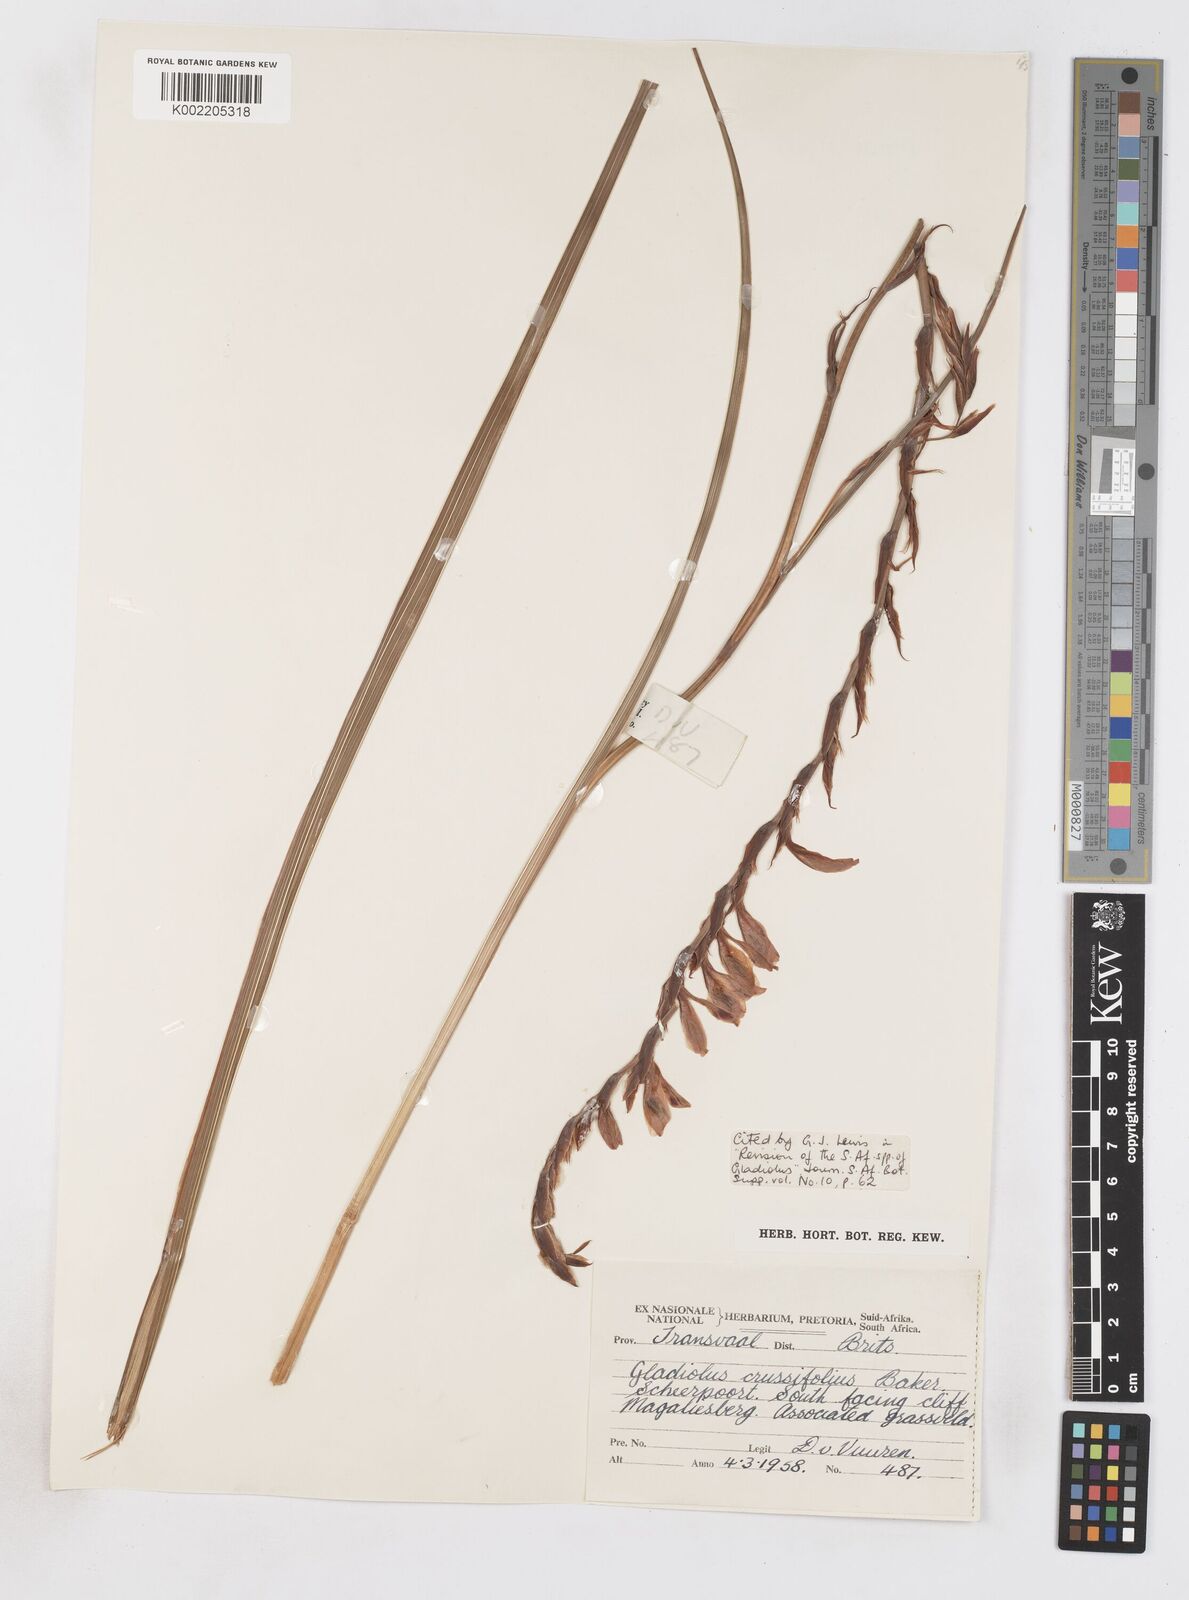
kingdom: Plantae
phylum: Tracheophyta
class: Liliopsida
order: Asparagales
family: Iridaceae
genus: Gladiolus
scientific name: Gladiolus crassifolius
